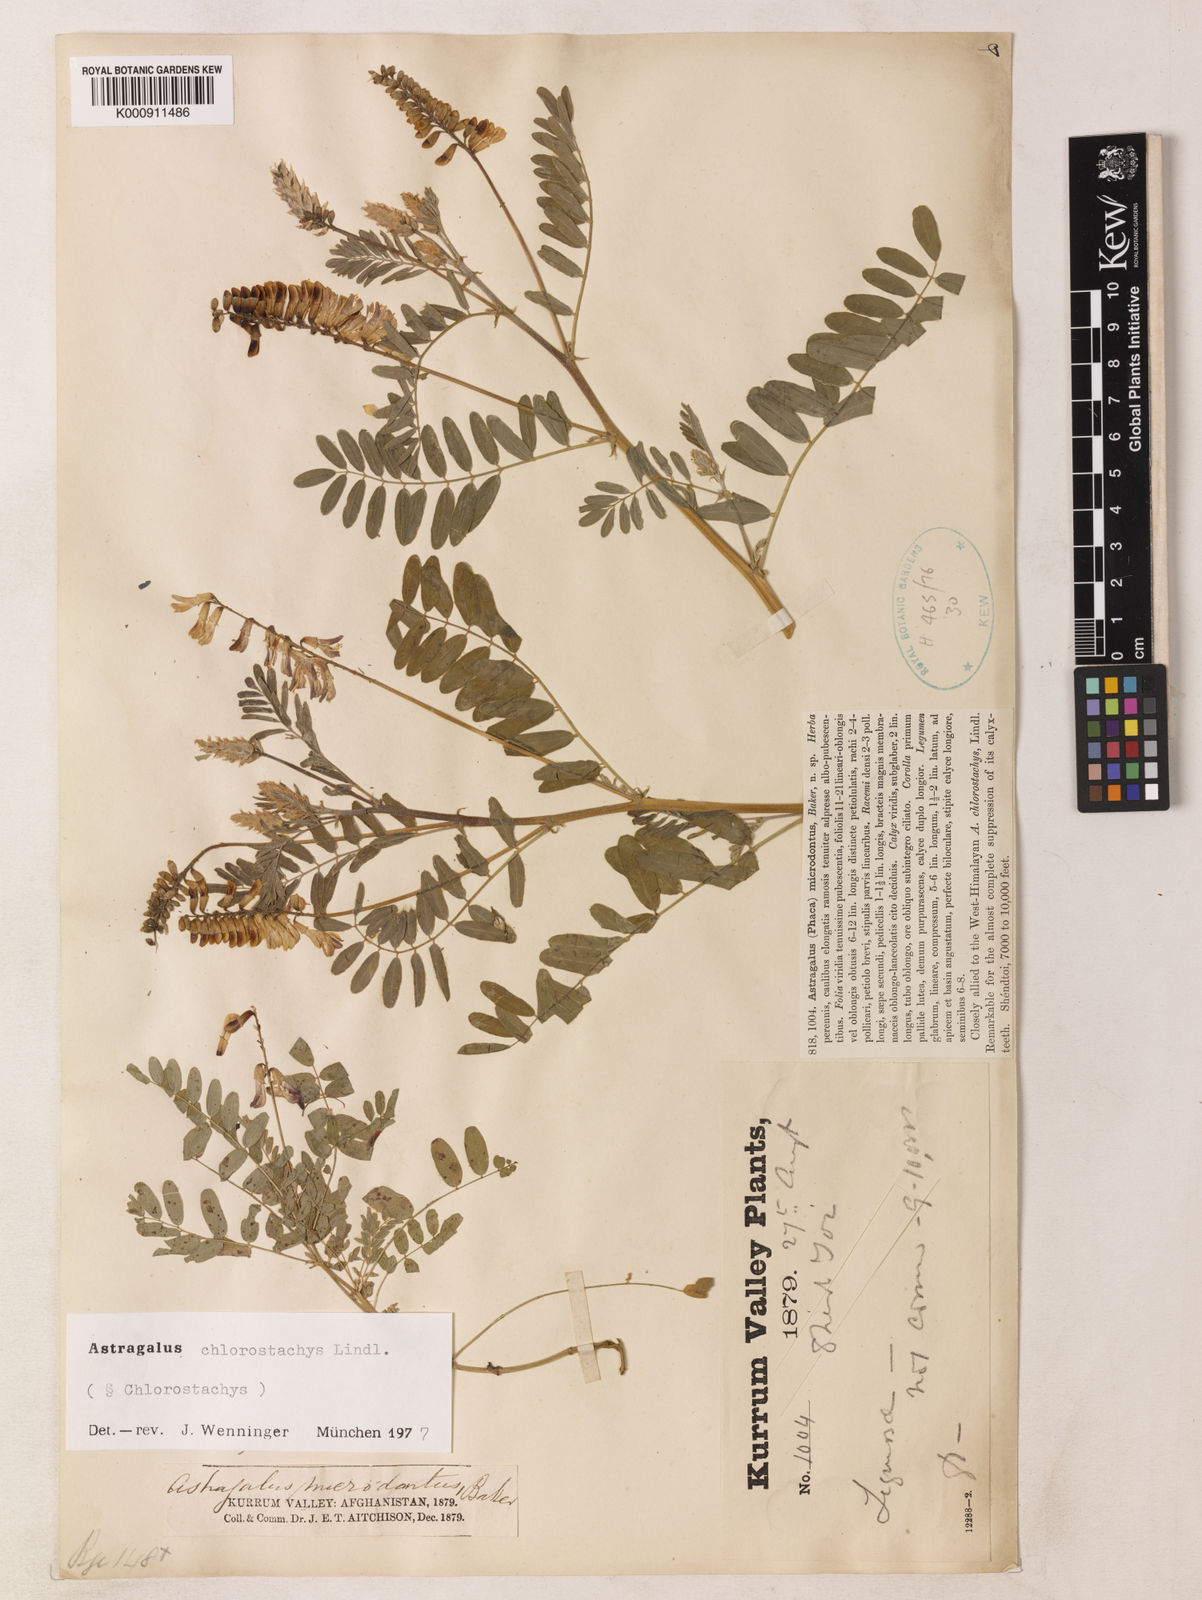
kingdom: Plantae
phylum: Tracheophyta
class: Magnoliopsida
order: Fabales
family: Fabaceae
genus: Astragalus
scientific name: Astragalus chlorostachys
